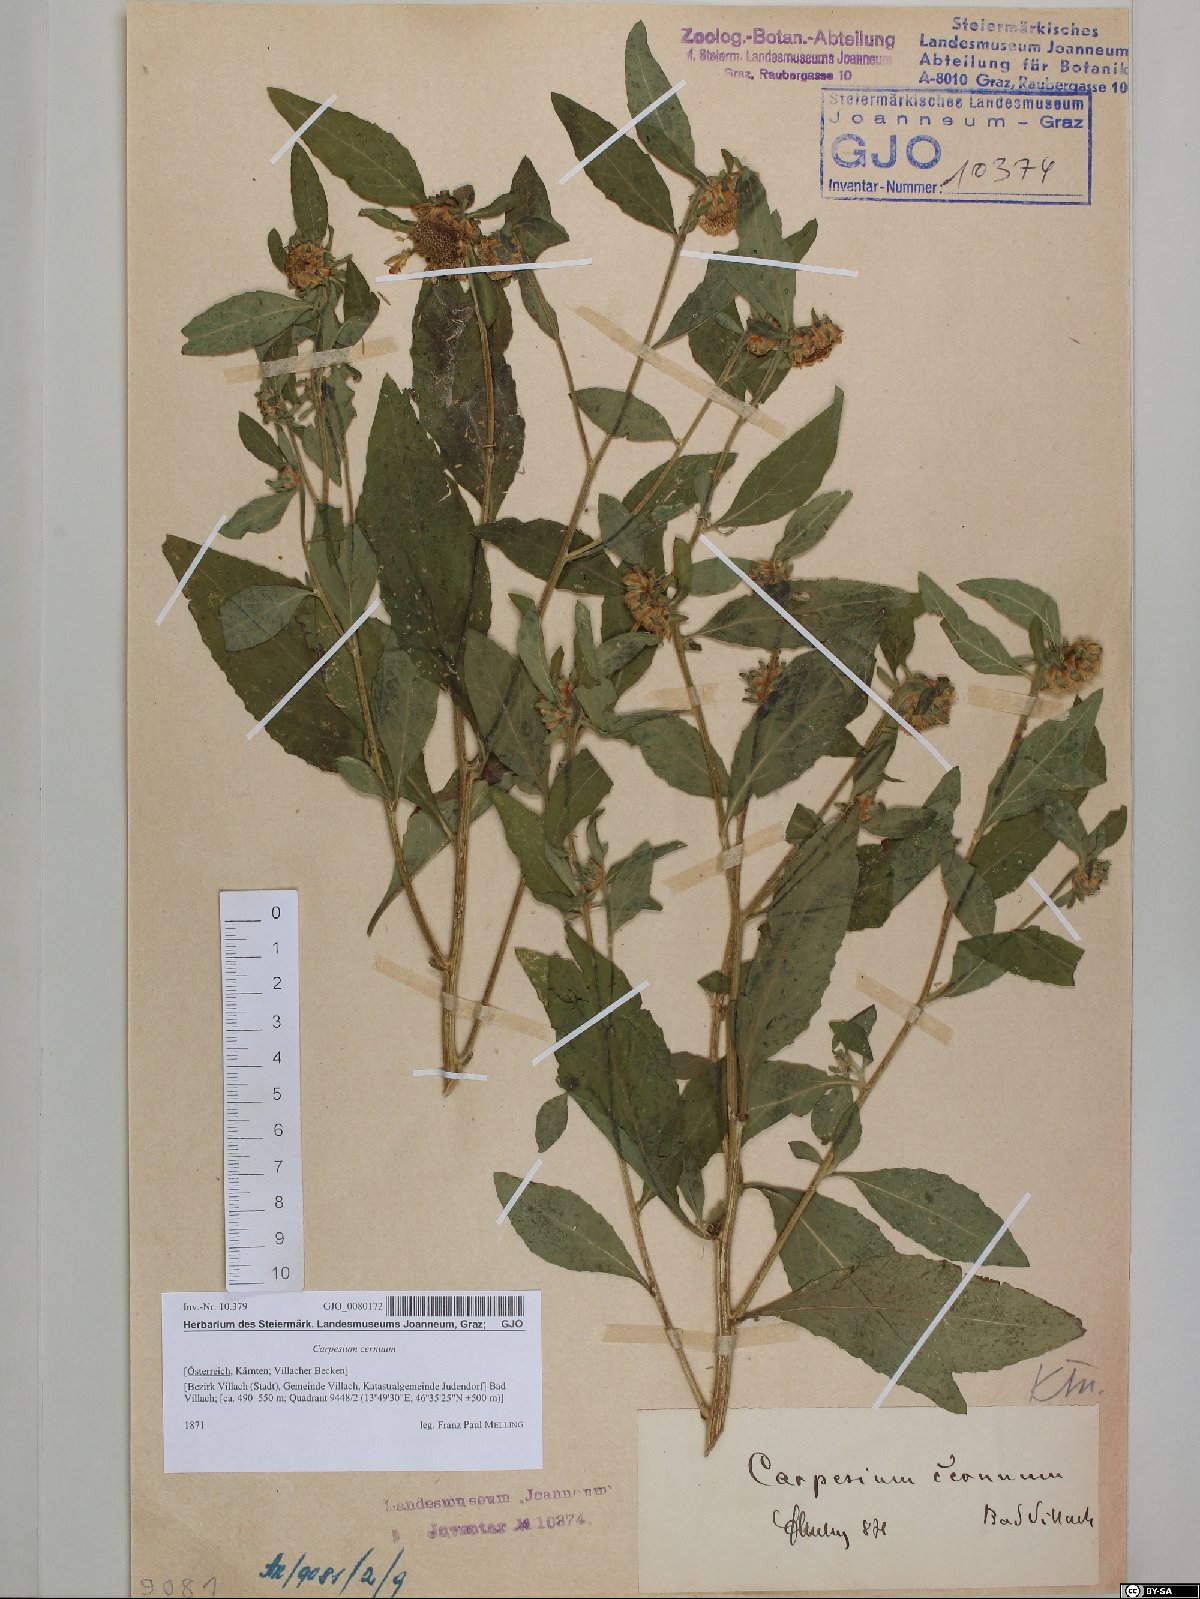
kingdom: Plantae
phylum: Tracheophyta
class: Magnoliopsida
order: Asterales
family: Asteraceae
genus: Carpesium
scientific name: Carpesium cernuum
